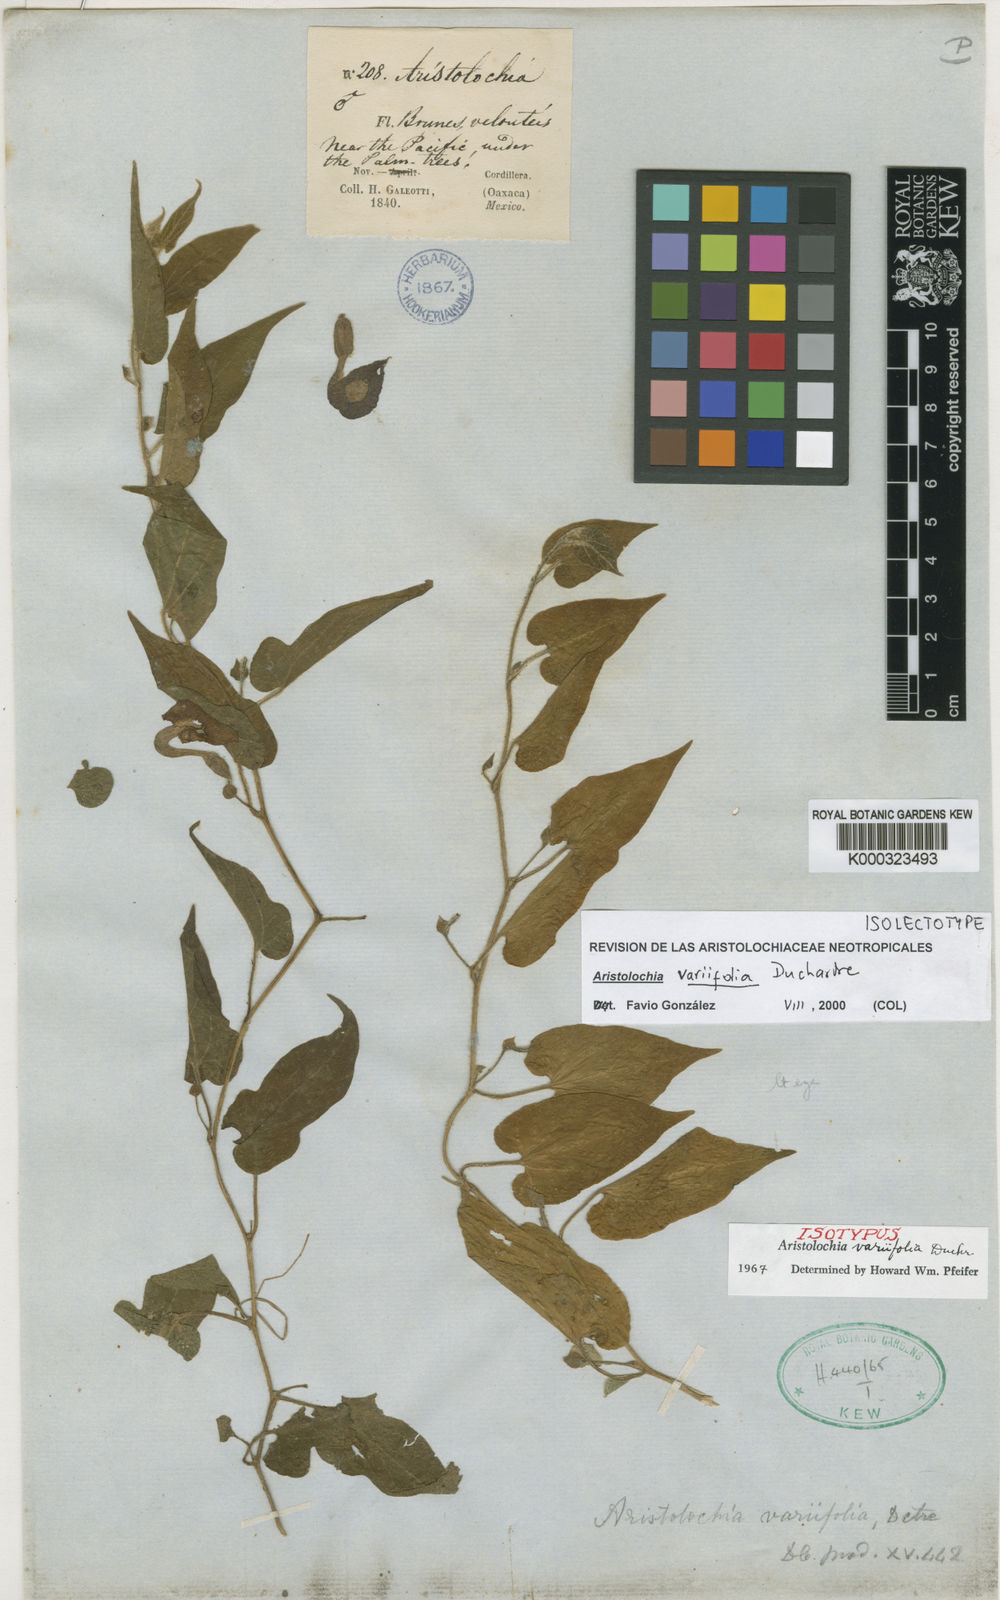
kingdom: Plantae
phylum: Tracheophyta
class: Magnoliopsida
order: Piperales
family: Aristolochiaceae
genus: Aristolochia
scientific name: Aristolochia variifolia
